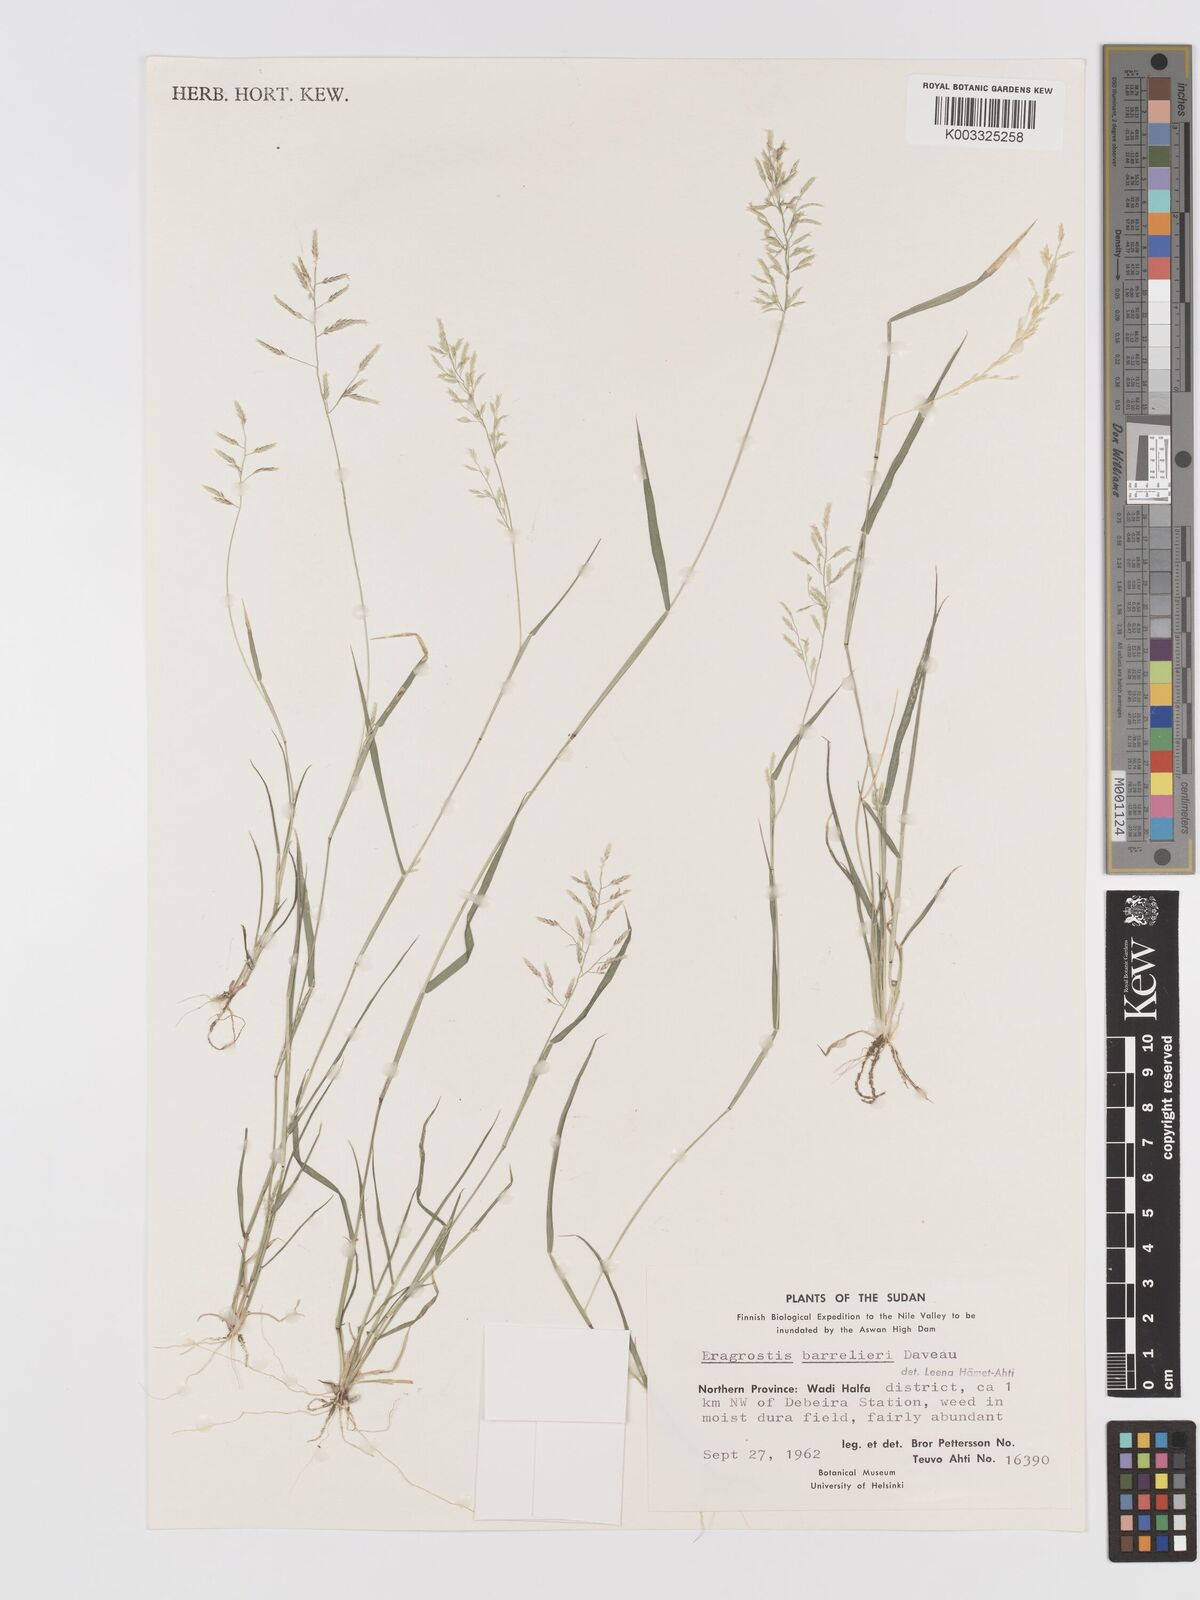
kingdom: Plantae
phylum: Tracheophyta
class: Liliopsida
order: Poales
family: Poaceae
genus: Eragrostis
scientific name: Eragrostis barrelieri
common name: Mediterranean lovegrass
